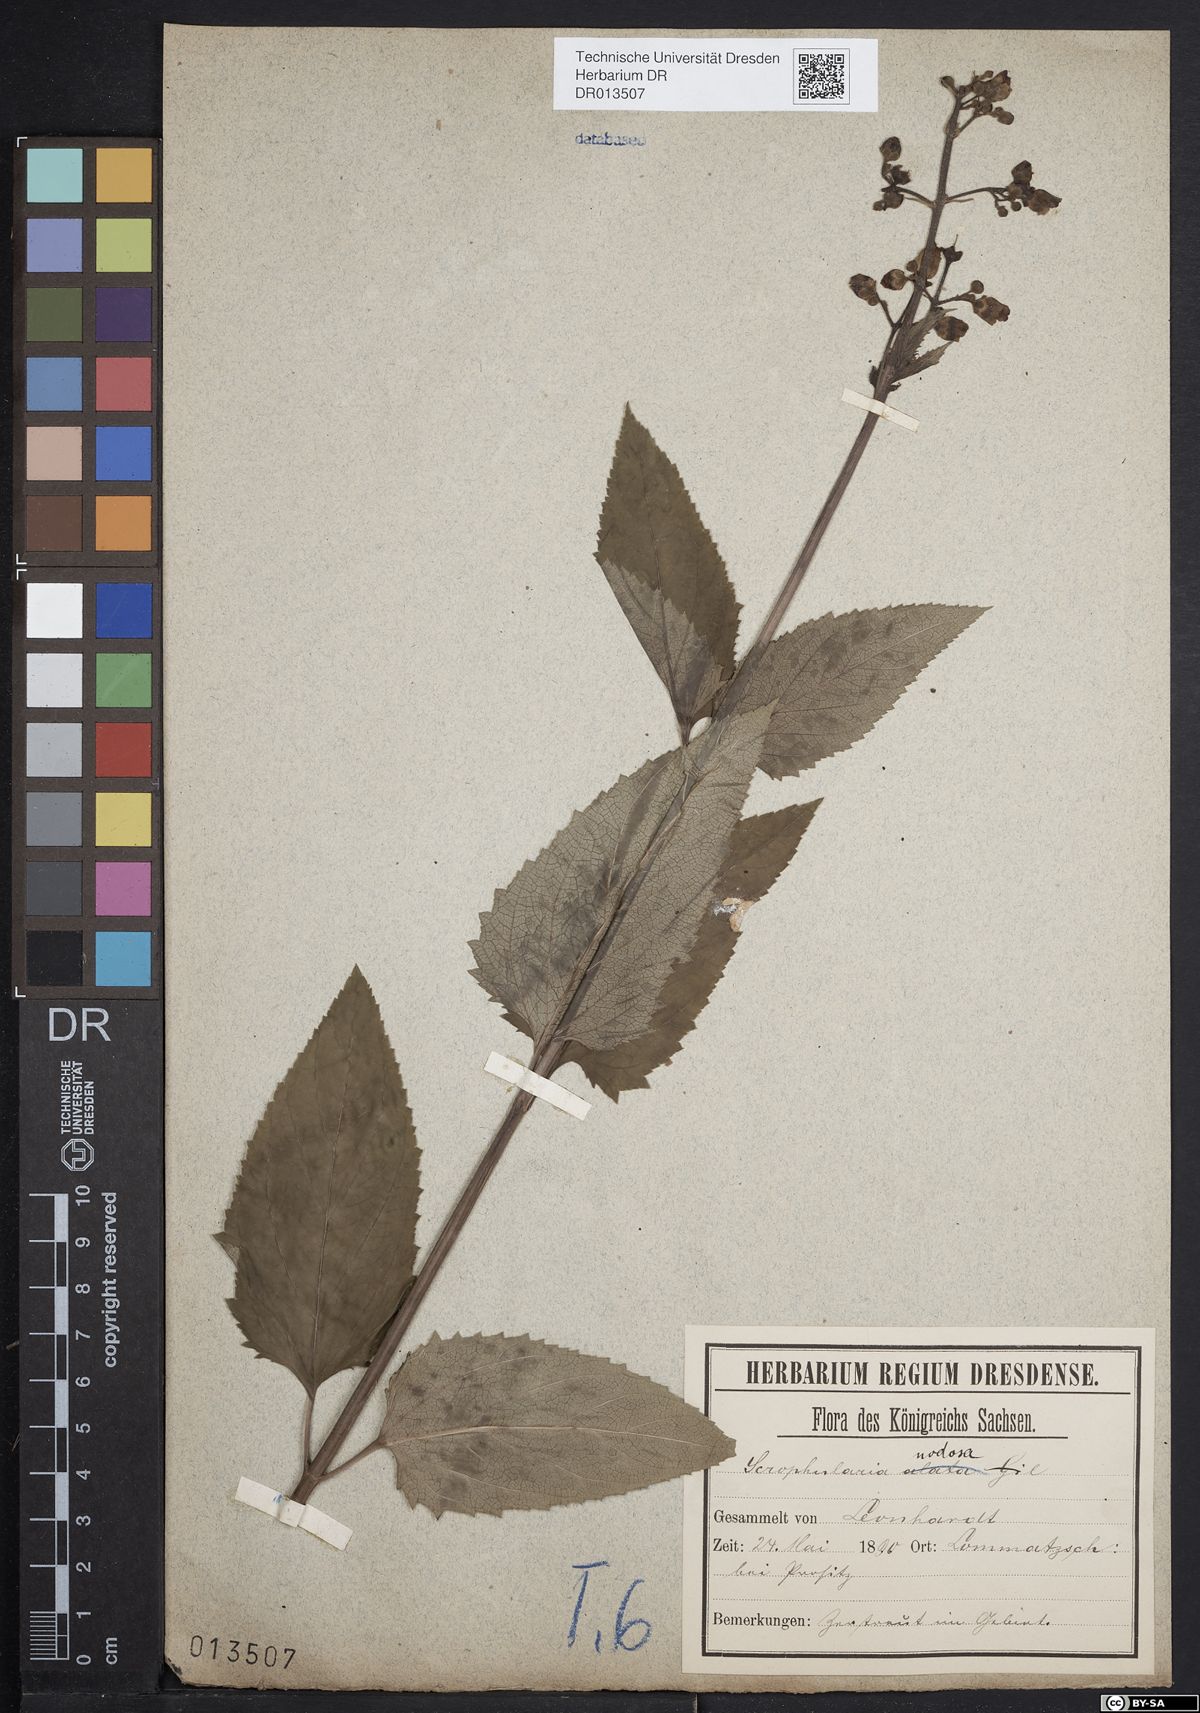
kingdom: Plantae
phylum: Tracheophyta
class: Magnoliopsida
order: Lamiales
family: Scrophulariaceae
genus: Scrophularia
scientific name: Scrophularia nodosa
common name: Common figwort
